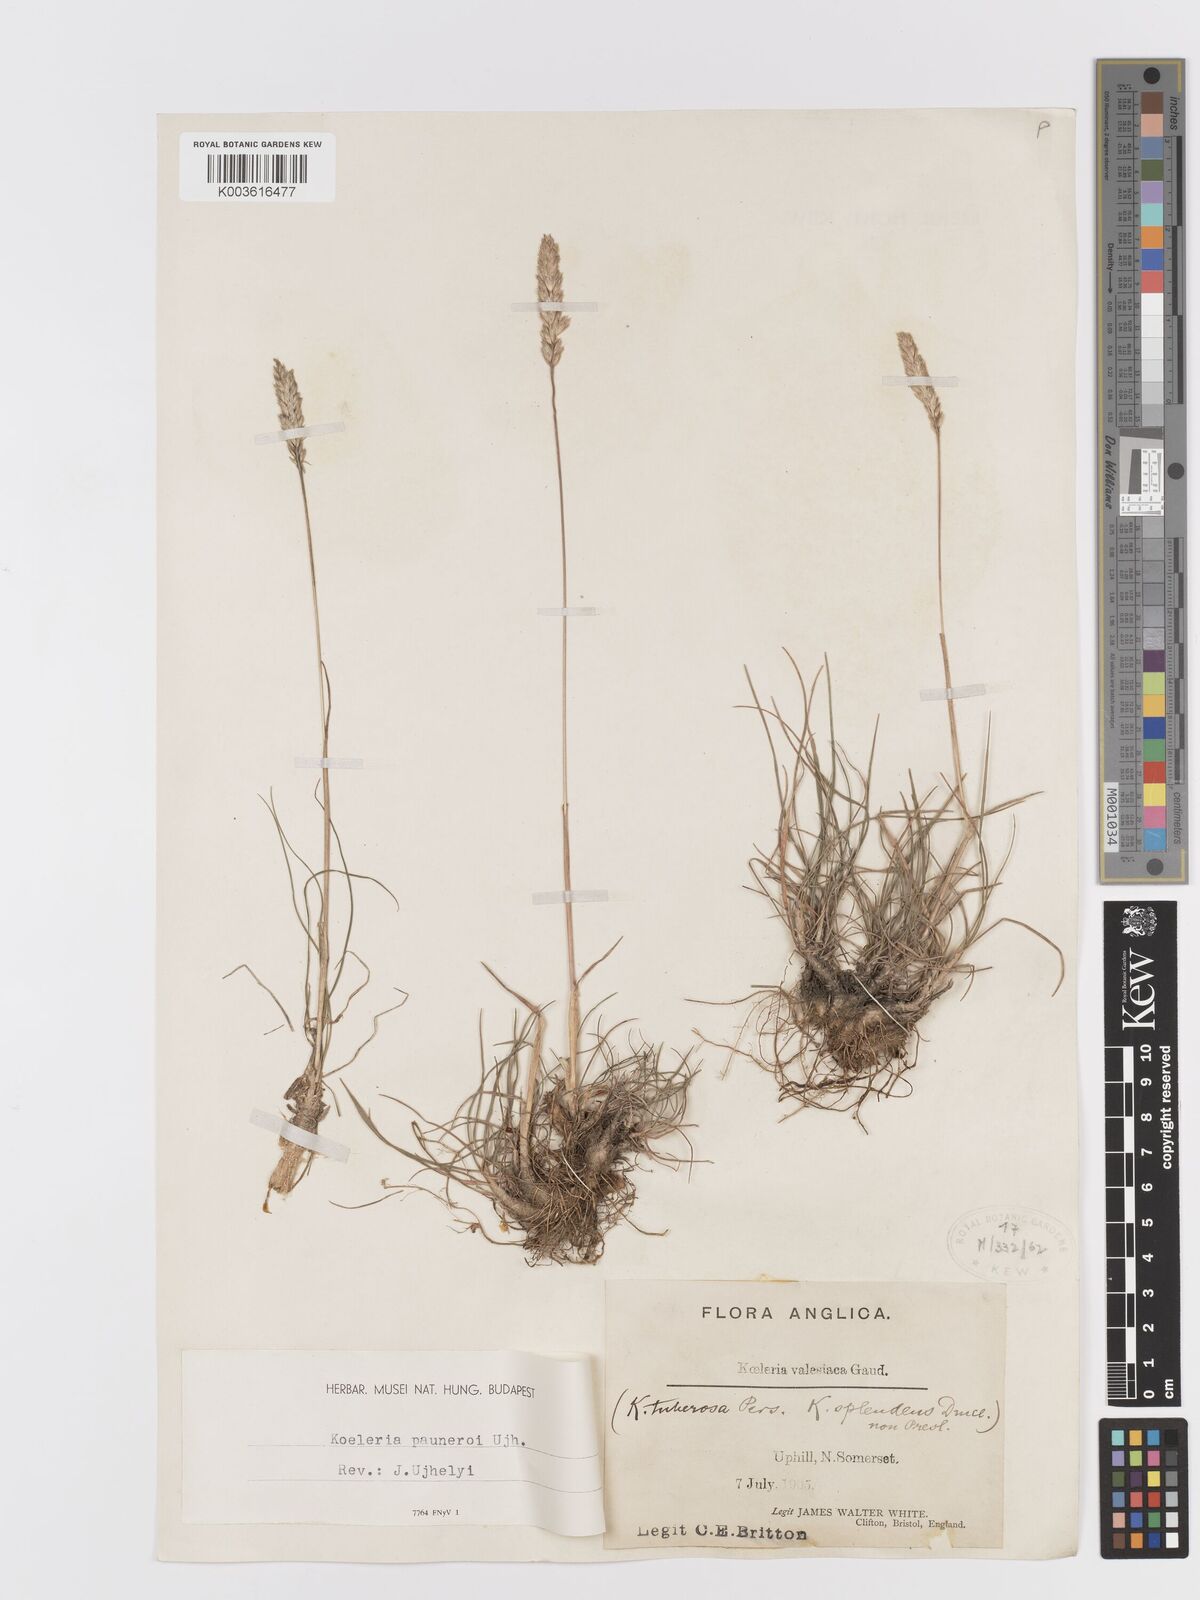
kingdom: Plantae
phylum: Tracheophyta
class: Liliopsida
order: Poales
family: Poaceae
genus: Koeleria
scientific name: Koeleria vallesiana
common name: Somerset hair-grass
